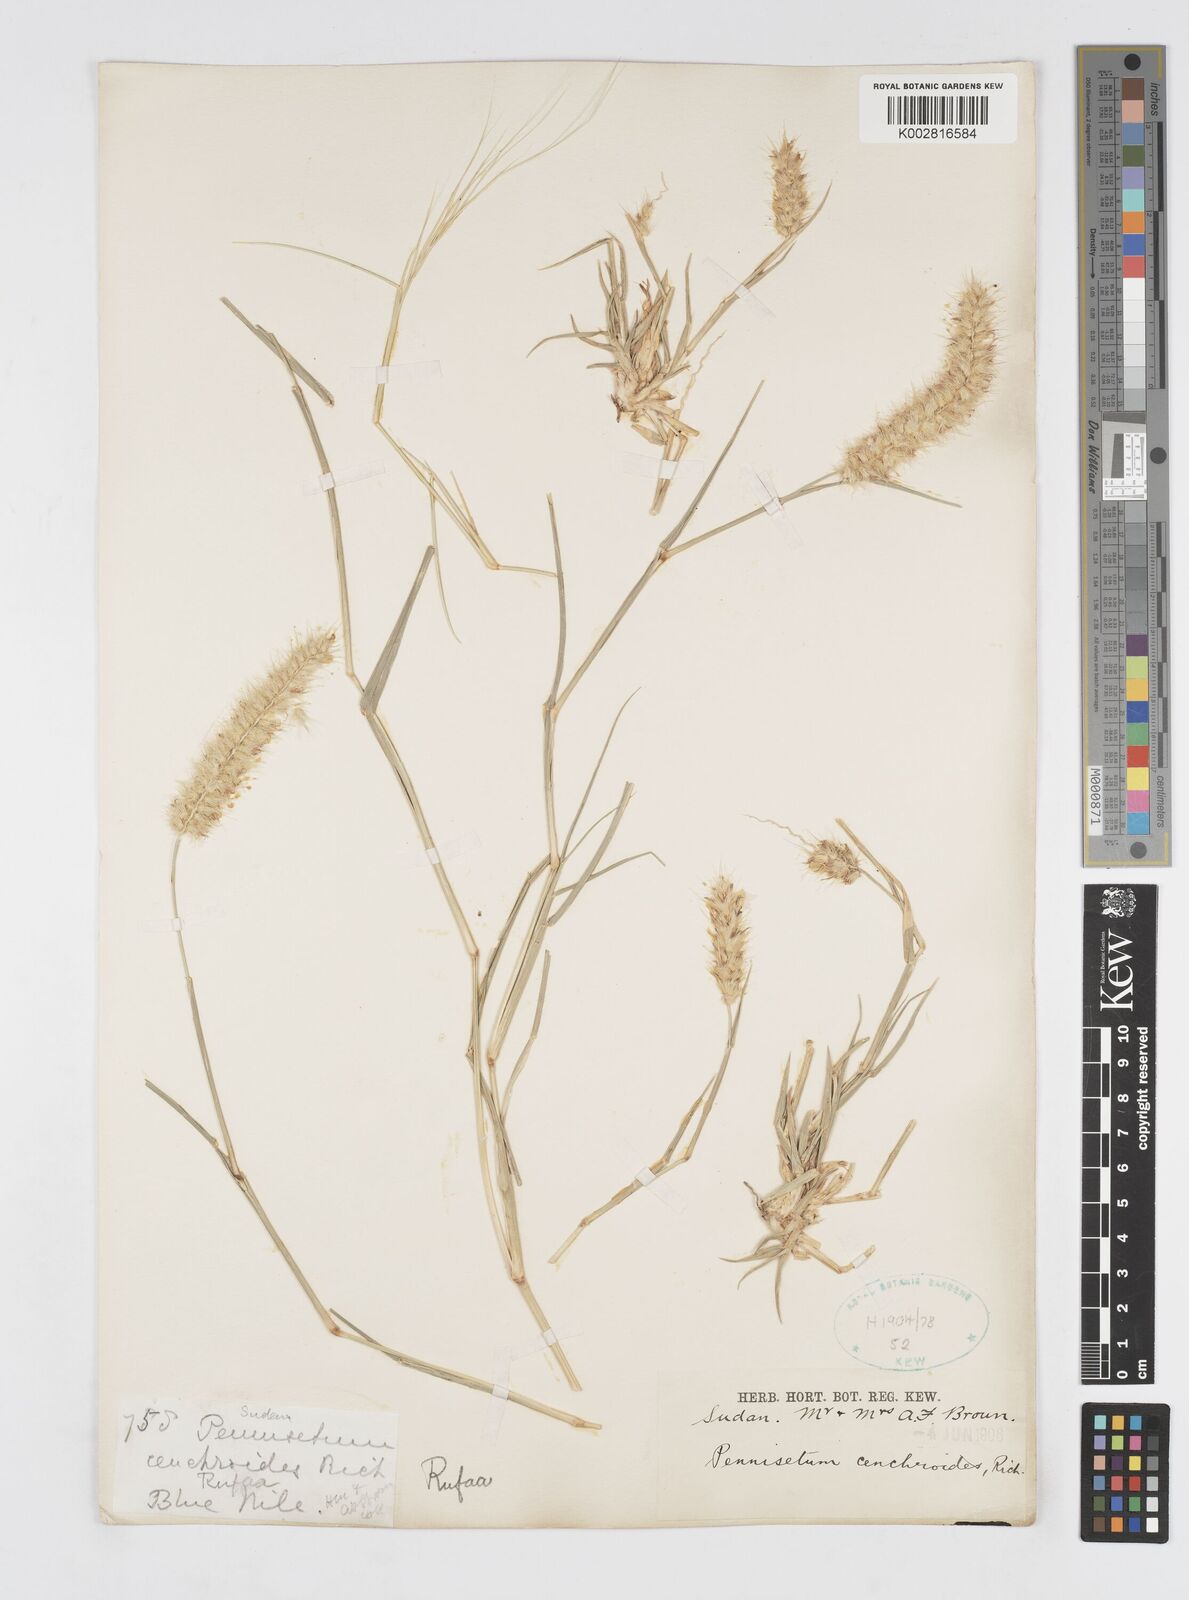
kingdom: Plantae
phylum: Tracheophyta
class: Liliopsida
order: Poales
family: Poaceae
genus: Cenchrus
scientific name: Cenchrus ciliaris
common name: Buffelgrass
